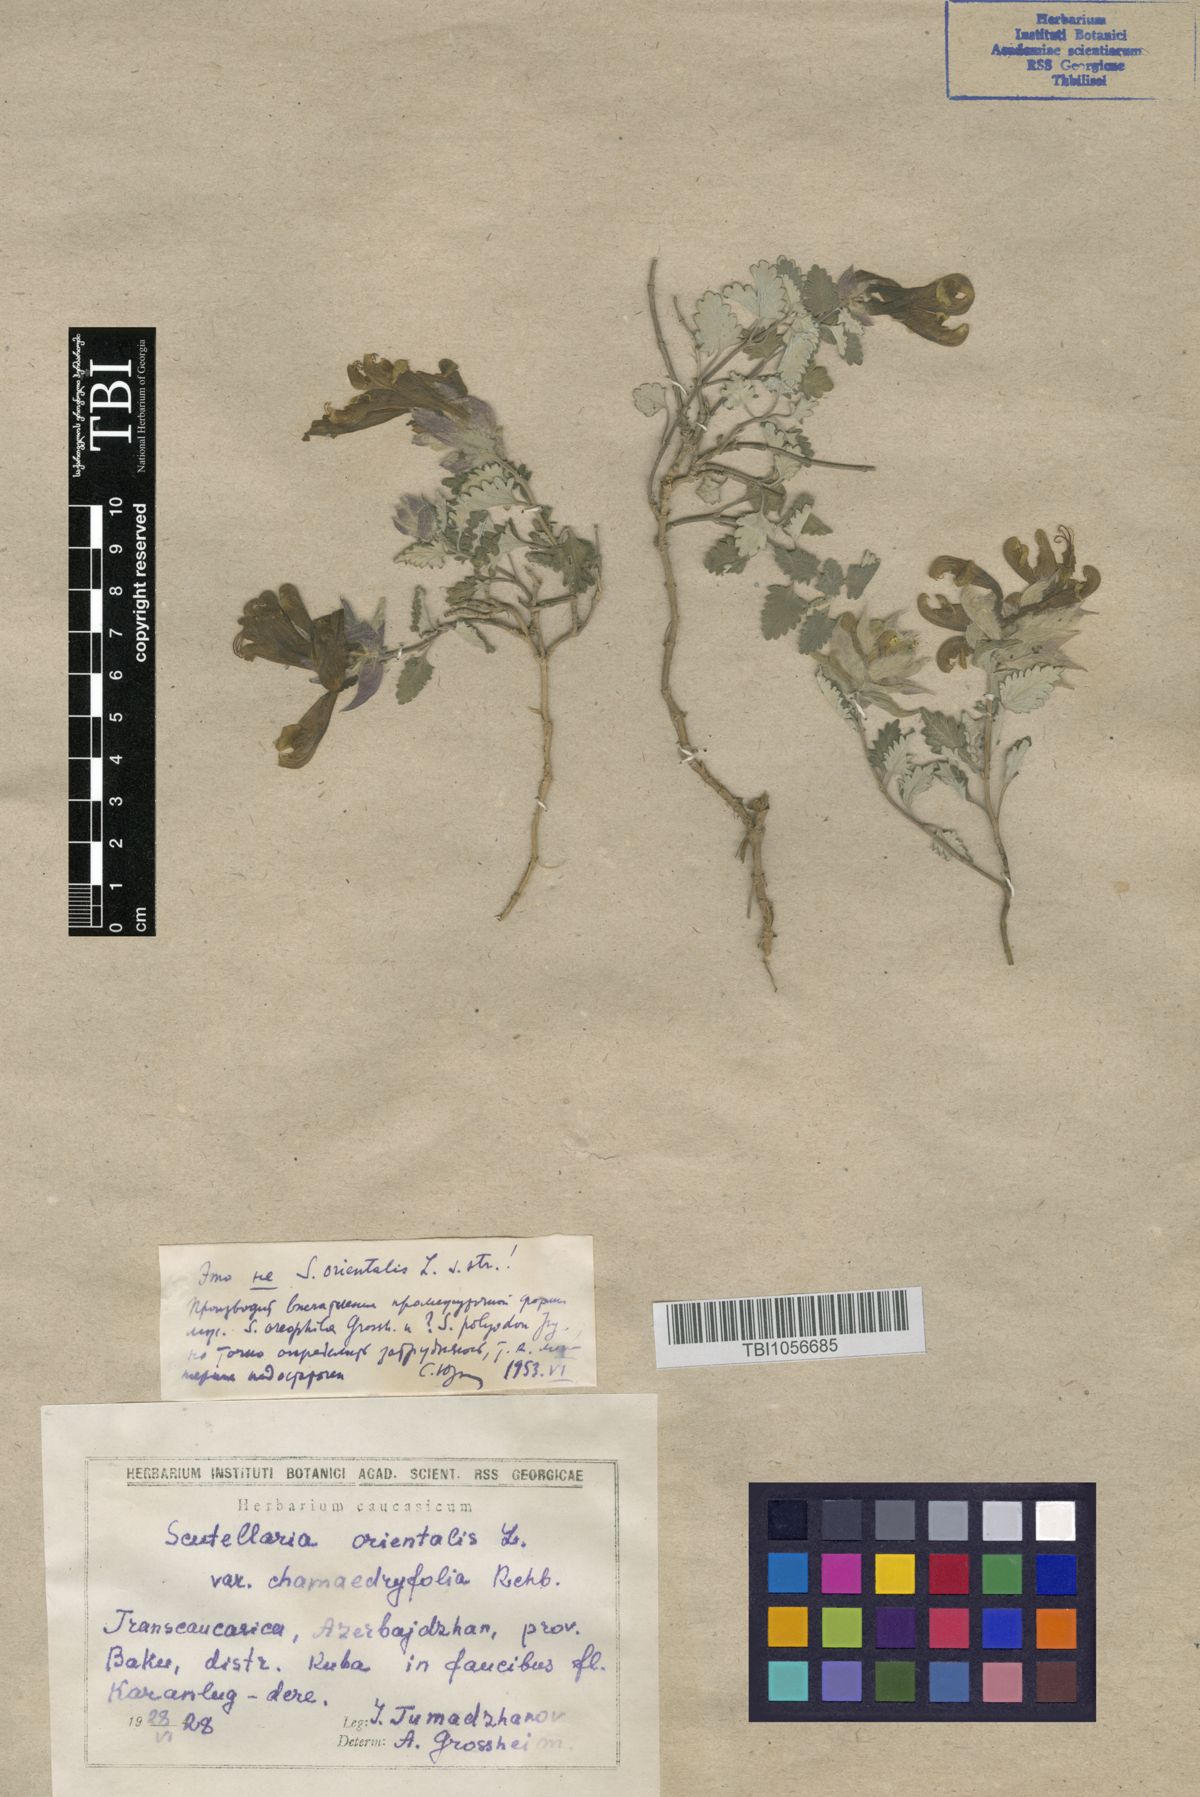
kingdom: Plantae
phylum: Tracheophyta
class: Magnoliopsida
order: Lamiales
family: Lamiaceae
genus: Scutellaria
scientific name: Scutellaria orientalis
